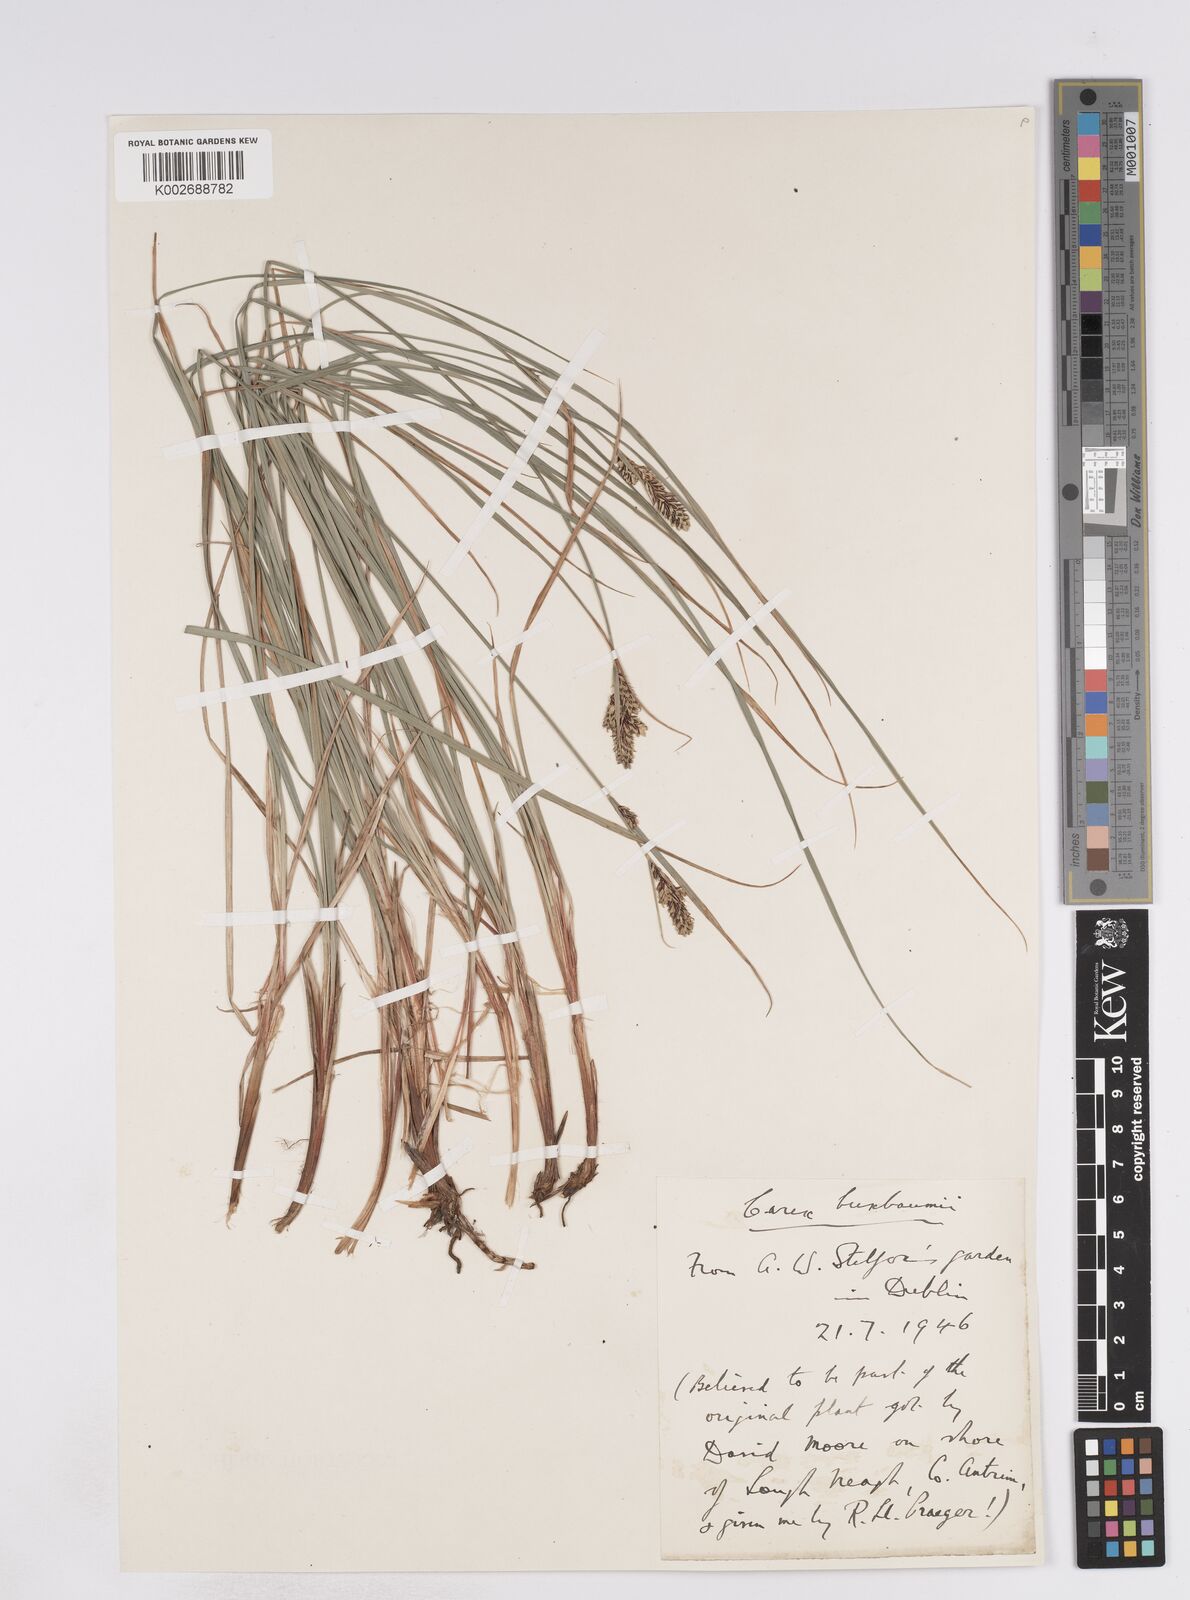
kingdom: Plantae
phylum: Tracheophyta
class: Liliopsida
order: Poales
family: Cyperaceae
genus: Carex
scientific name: Carex buxbaumii
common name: Club sedge
